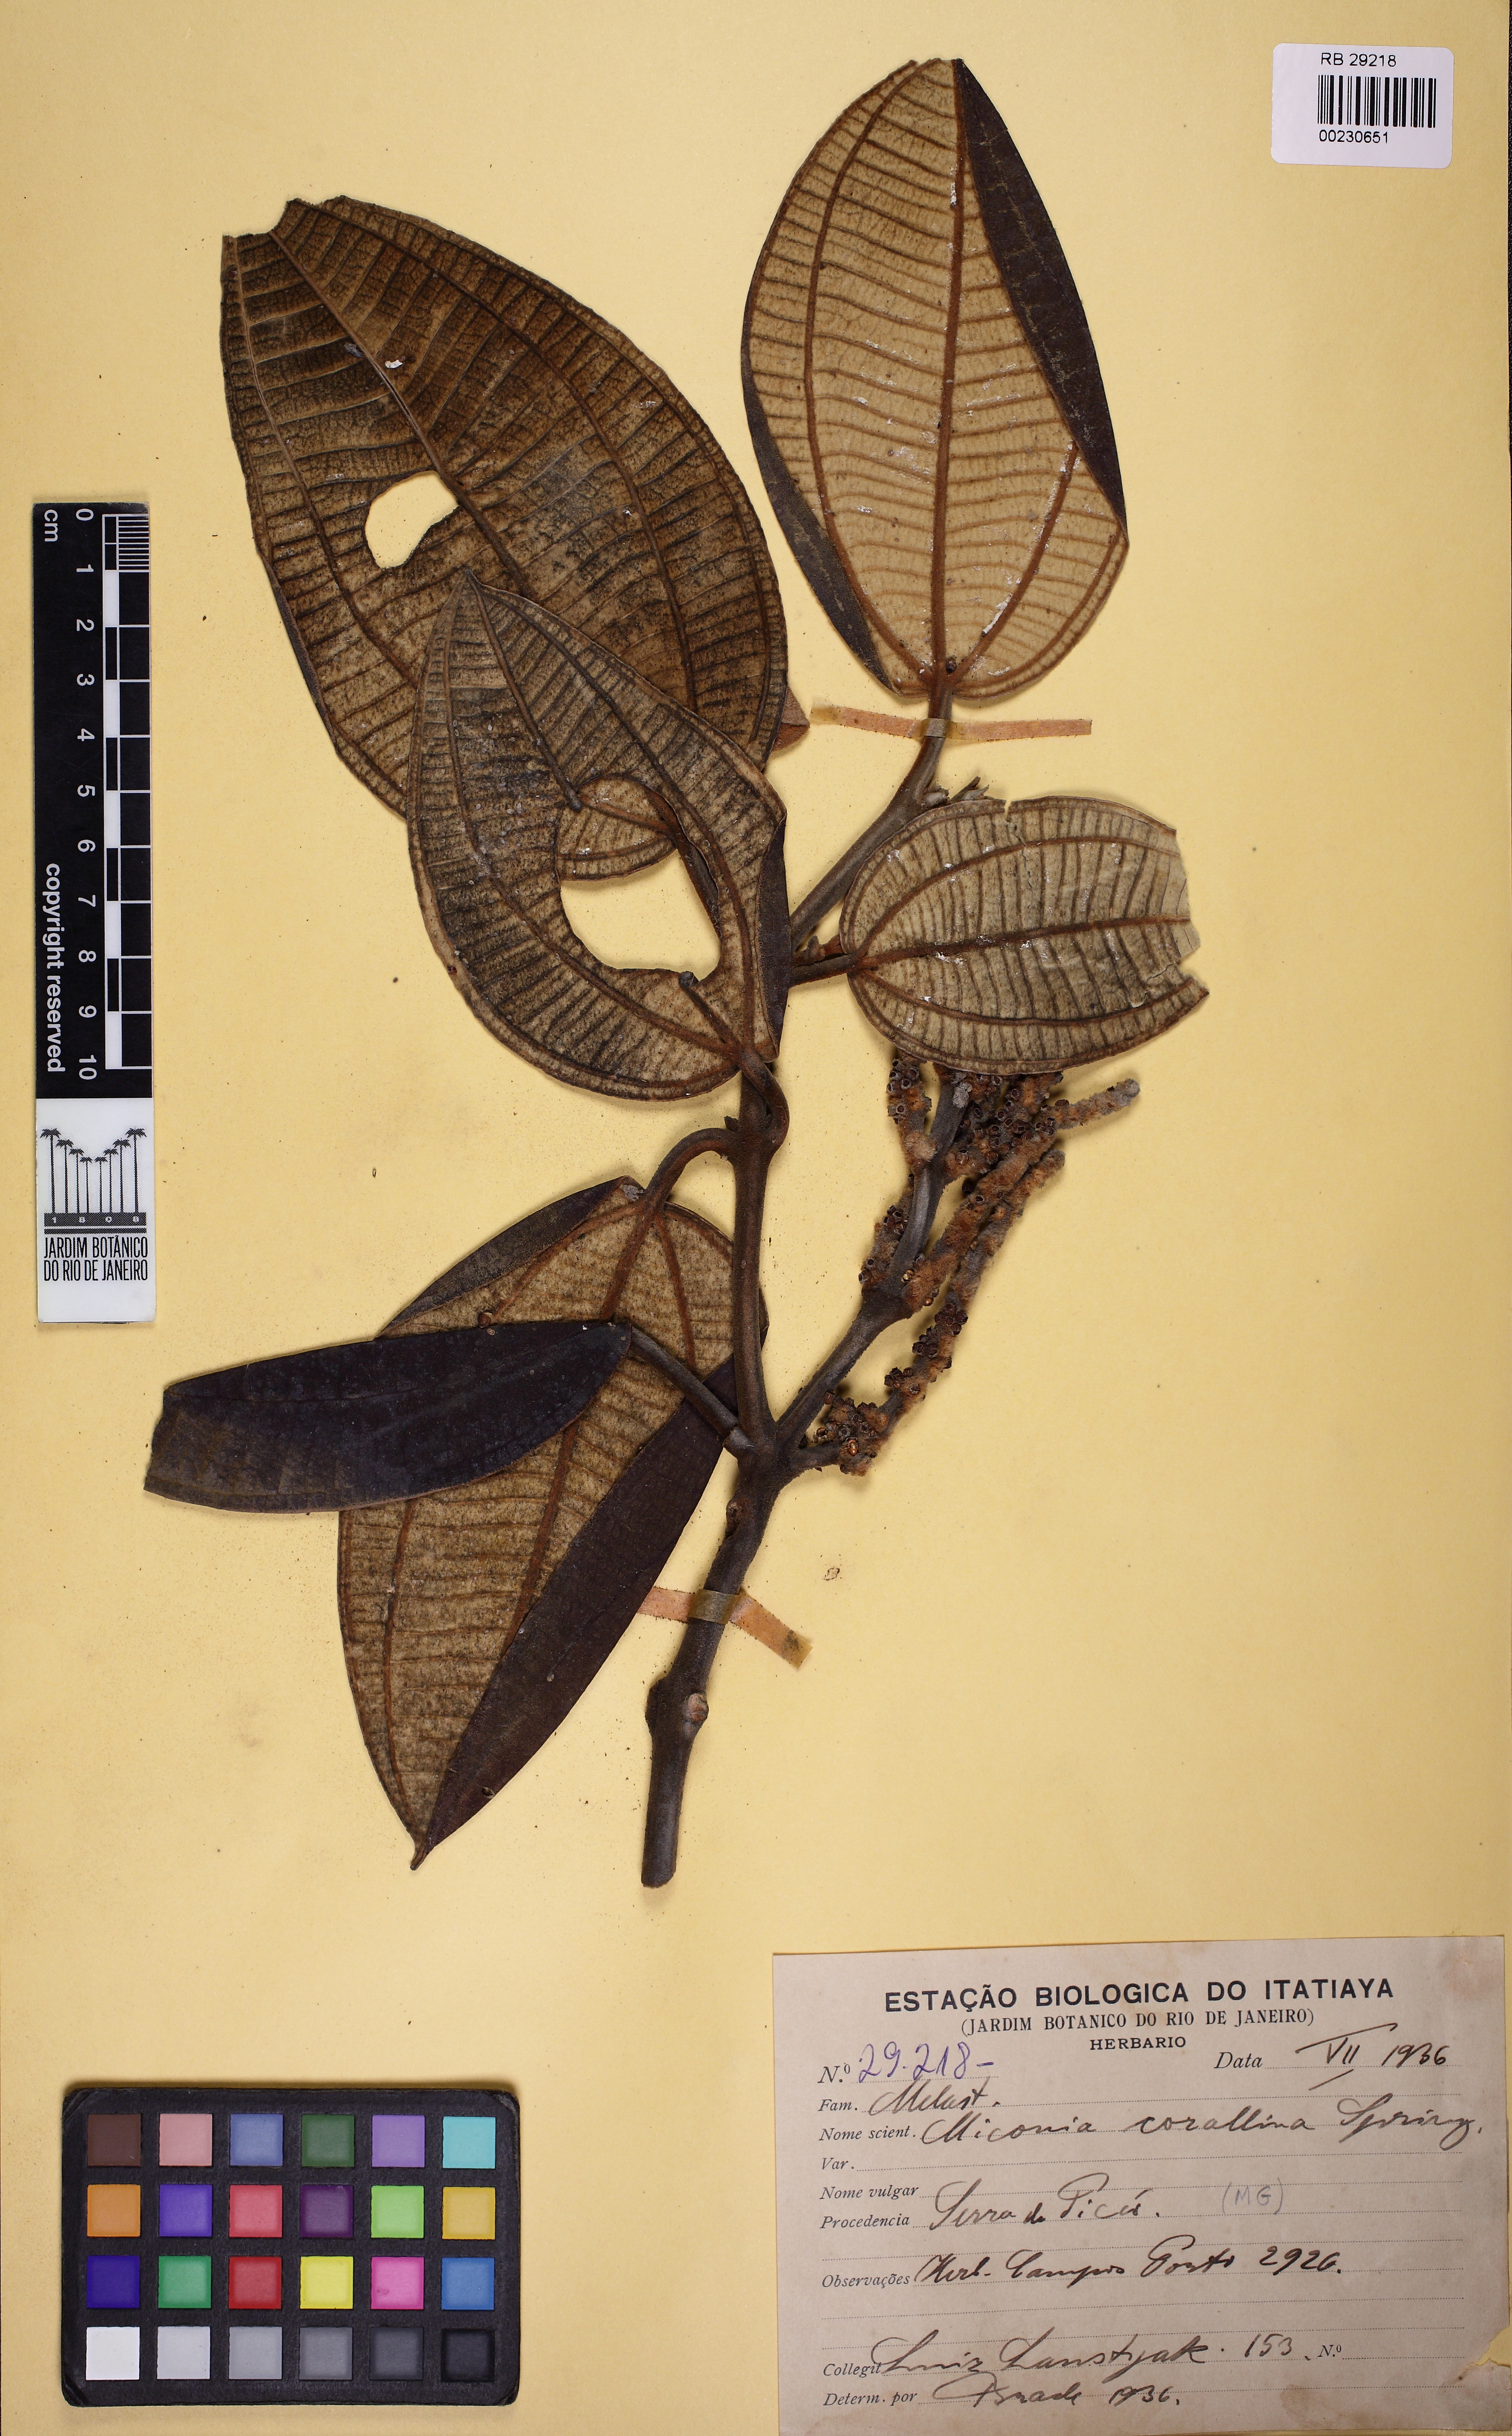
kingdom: Plantae
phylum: Tracheophyta
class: Magnoliopsida
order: Myrtales
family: Melastomataceae
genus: Miconia
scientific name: Miconia corallina
